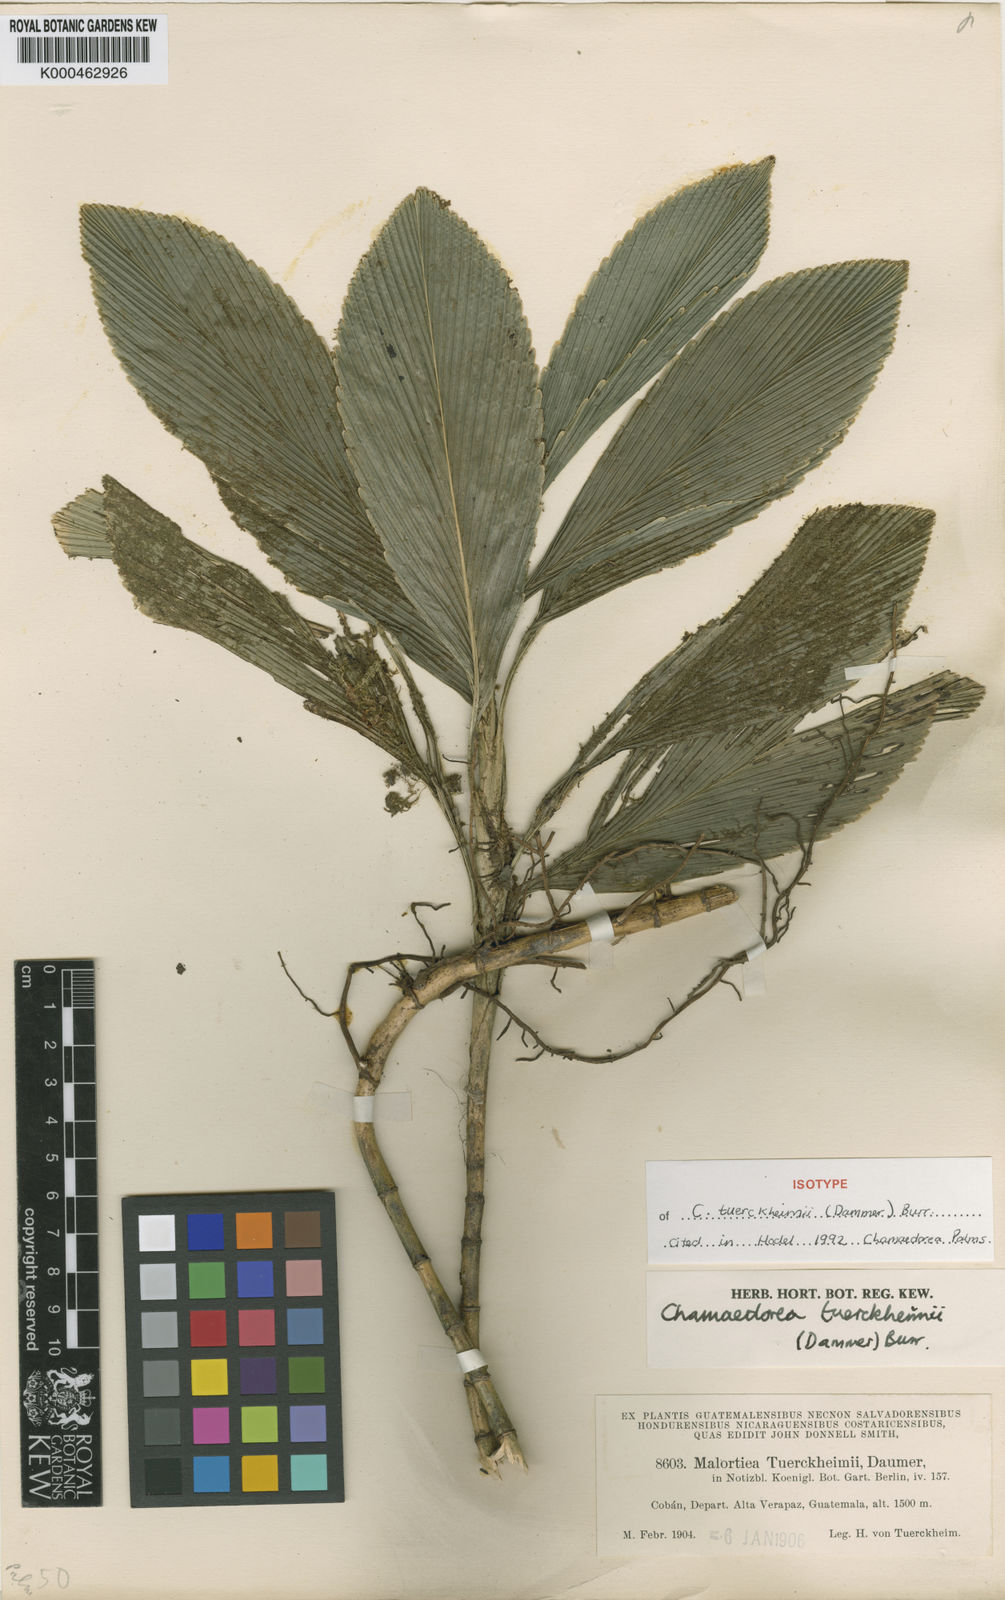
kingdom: Plantae
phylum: Tracheophyta
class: Liliopsida
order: Arecales
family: Arecaceae
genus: Chamaedorea
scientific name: Chamaedorea tuerckheimii
